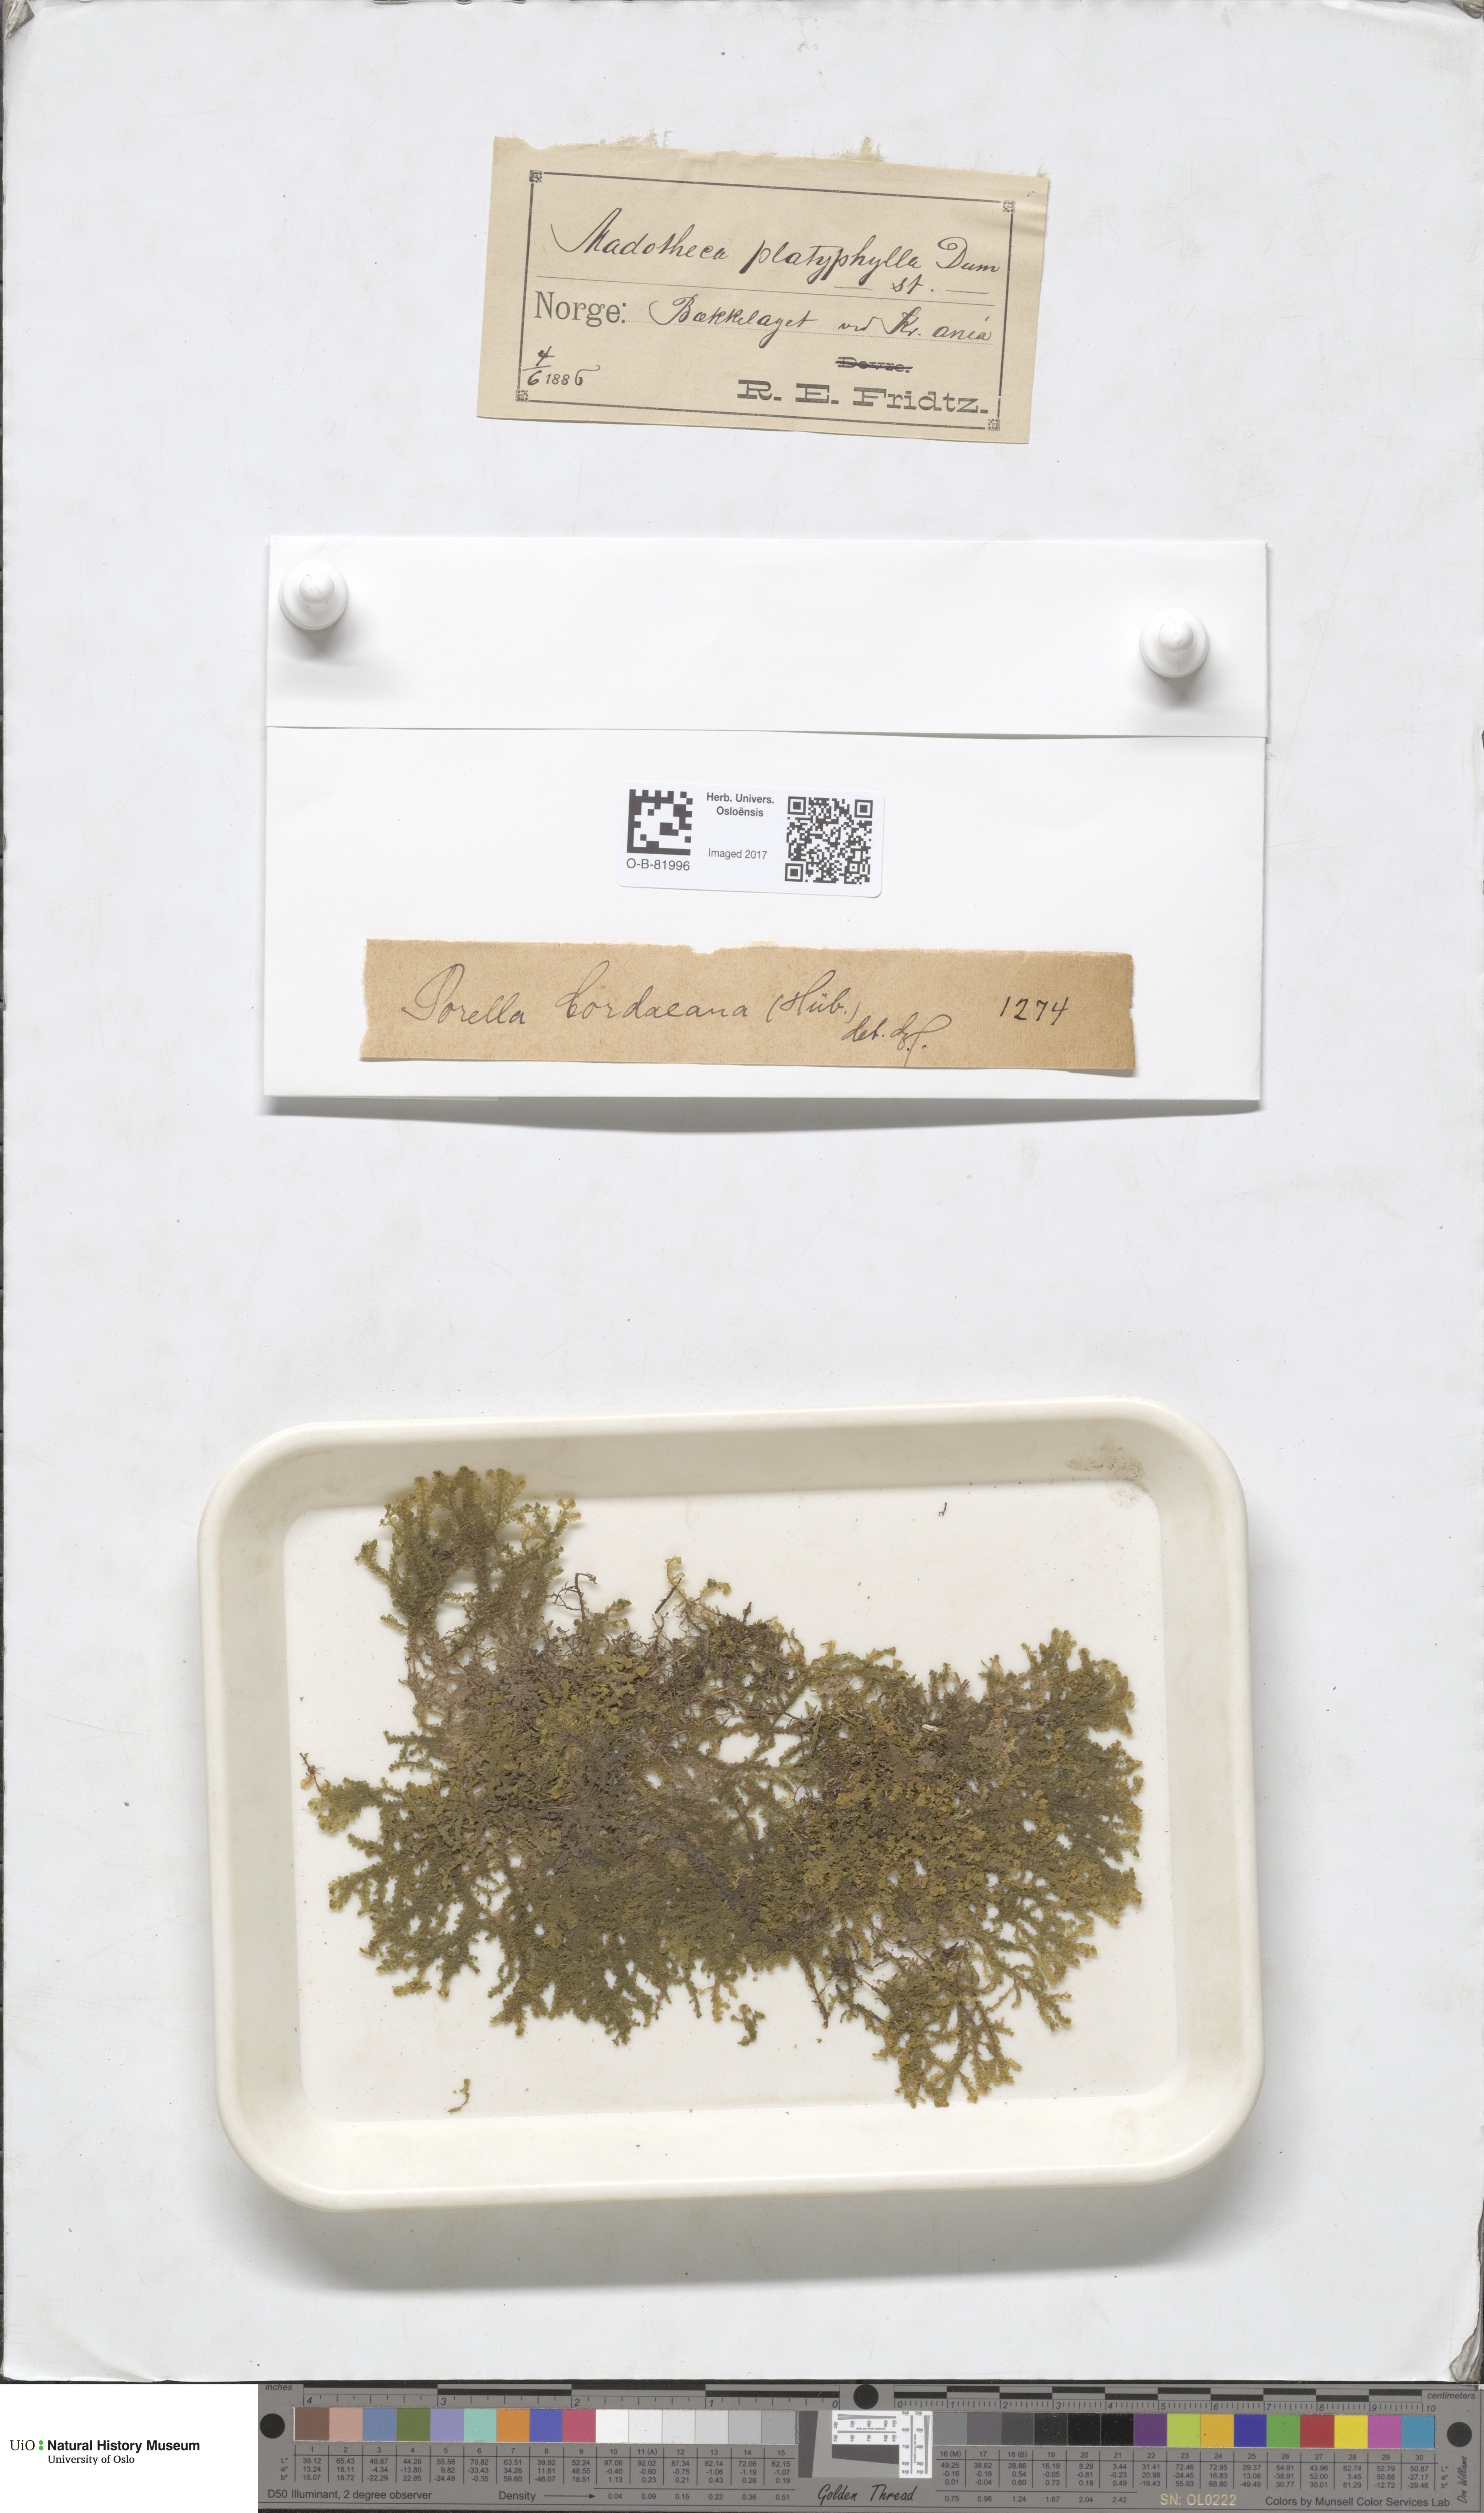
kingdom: Plantae
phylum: Marchantiophyta
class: Jungermanniopsida
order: Porellales
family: Porellaceae
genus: Porella
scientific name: Porella cordaeana
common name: Cliff scalewort
